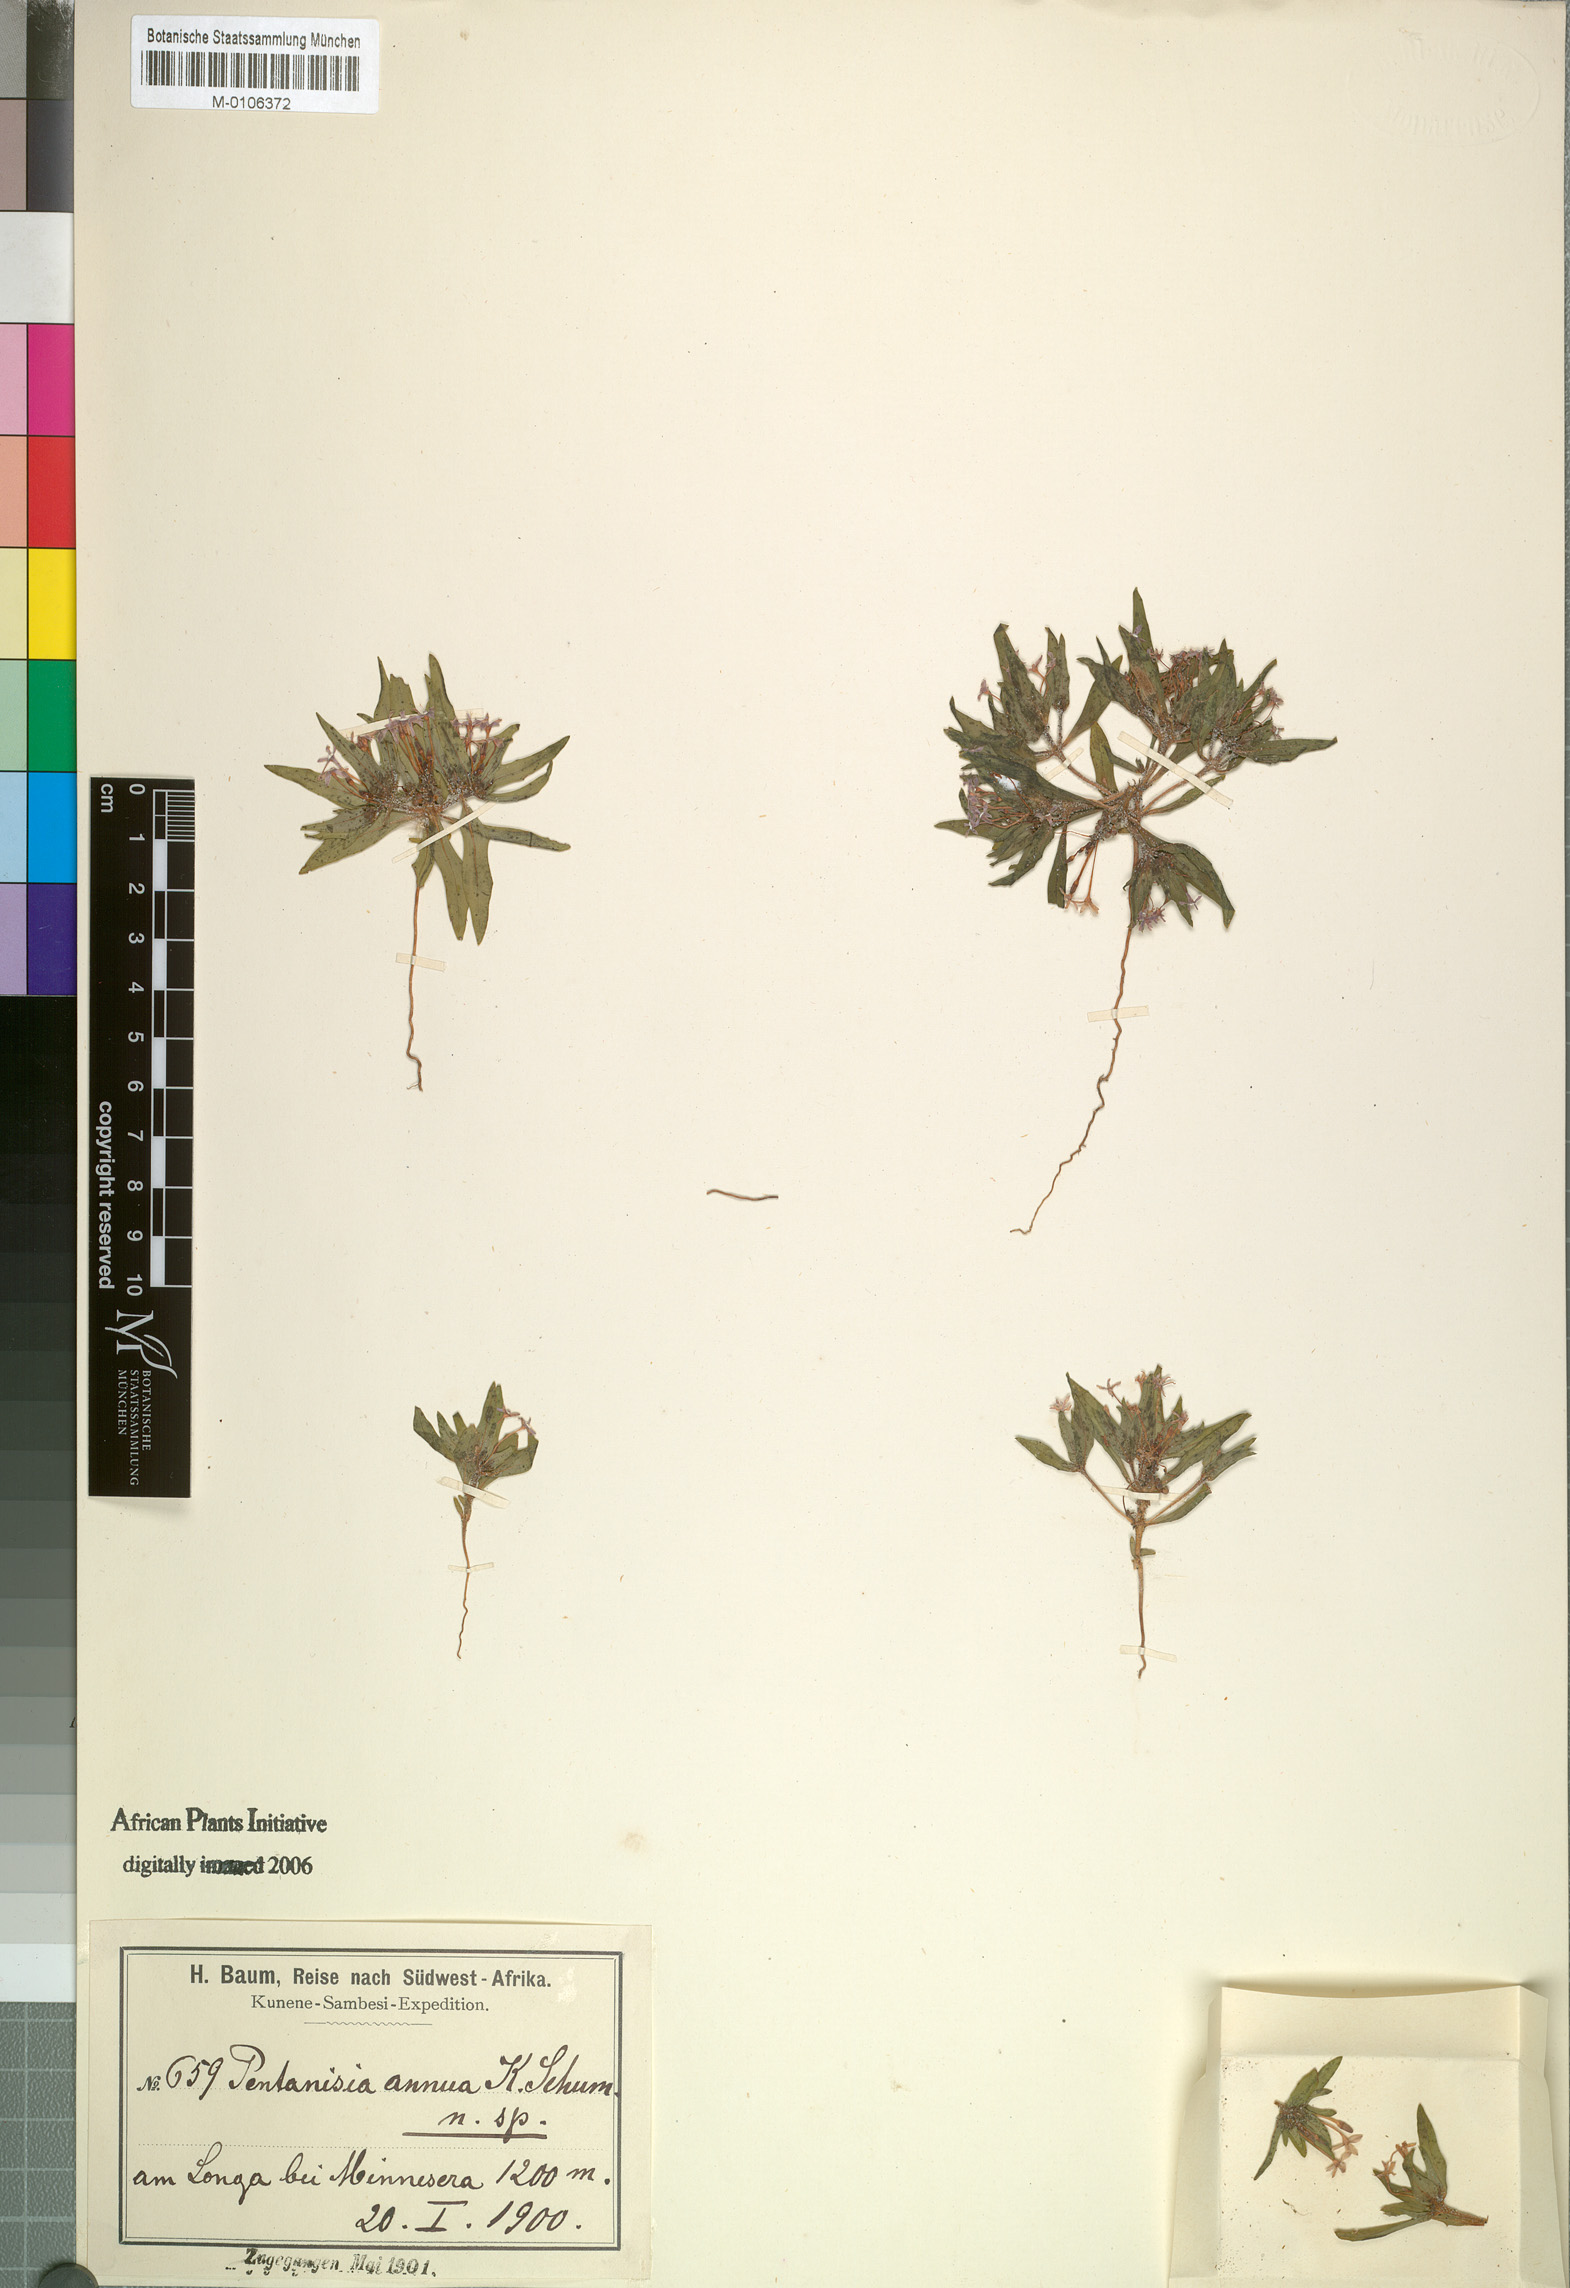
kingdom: Plantae
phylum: Tracheophyta
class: Magnoliopsida
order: Gentianales
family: Rubiaceae
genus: Pentanisia
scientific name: Pentanisia annua
